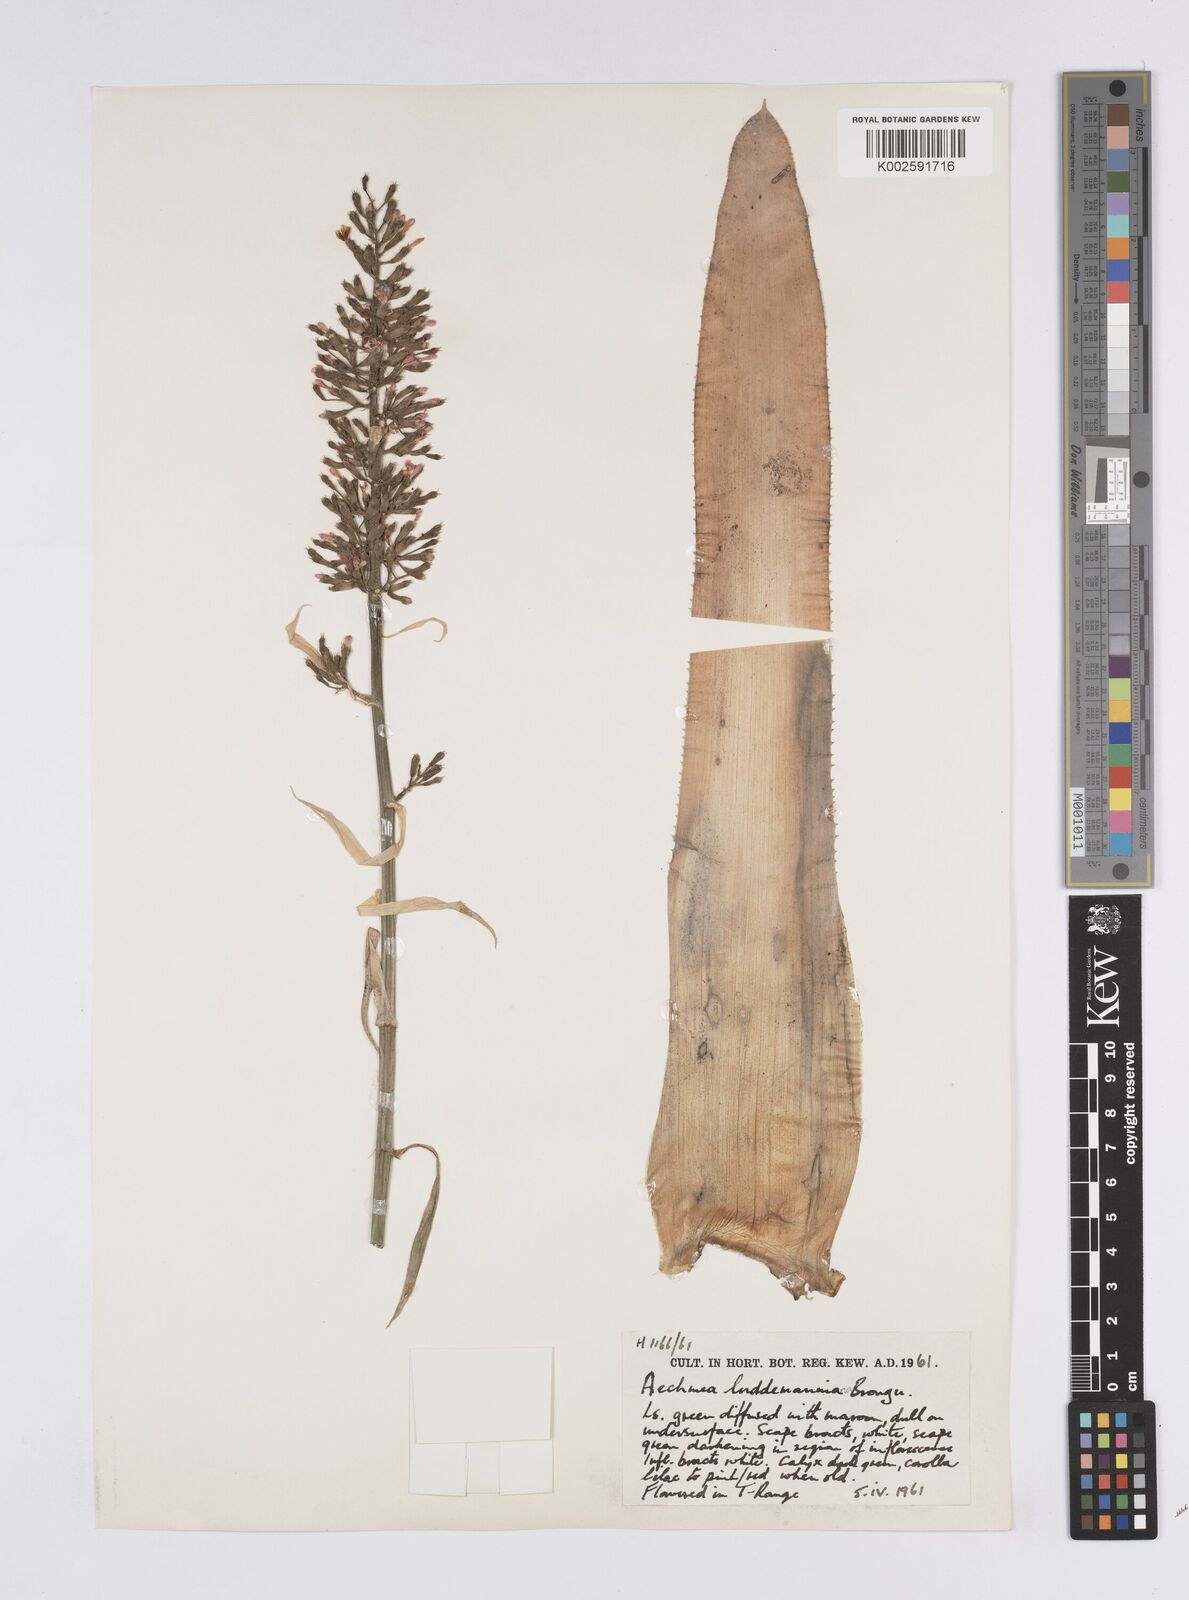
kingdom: Plantae
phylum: Tracheophyta
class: Liliopsida
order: Poales
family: Bromeliaceae
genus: Aechmea
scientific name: Aechmea lueddemanniana
